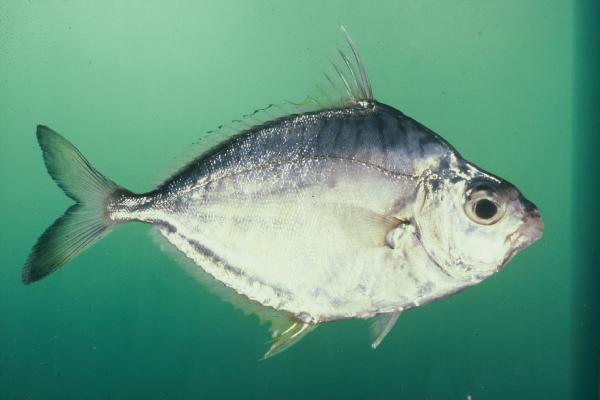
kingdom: Animalia
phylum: Chordata
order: Perciformes
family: Leiognathidae
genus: Leiognathus
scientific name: Leiognathus equulus
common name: Common ponyfish
